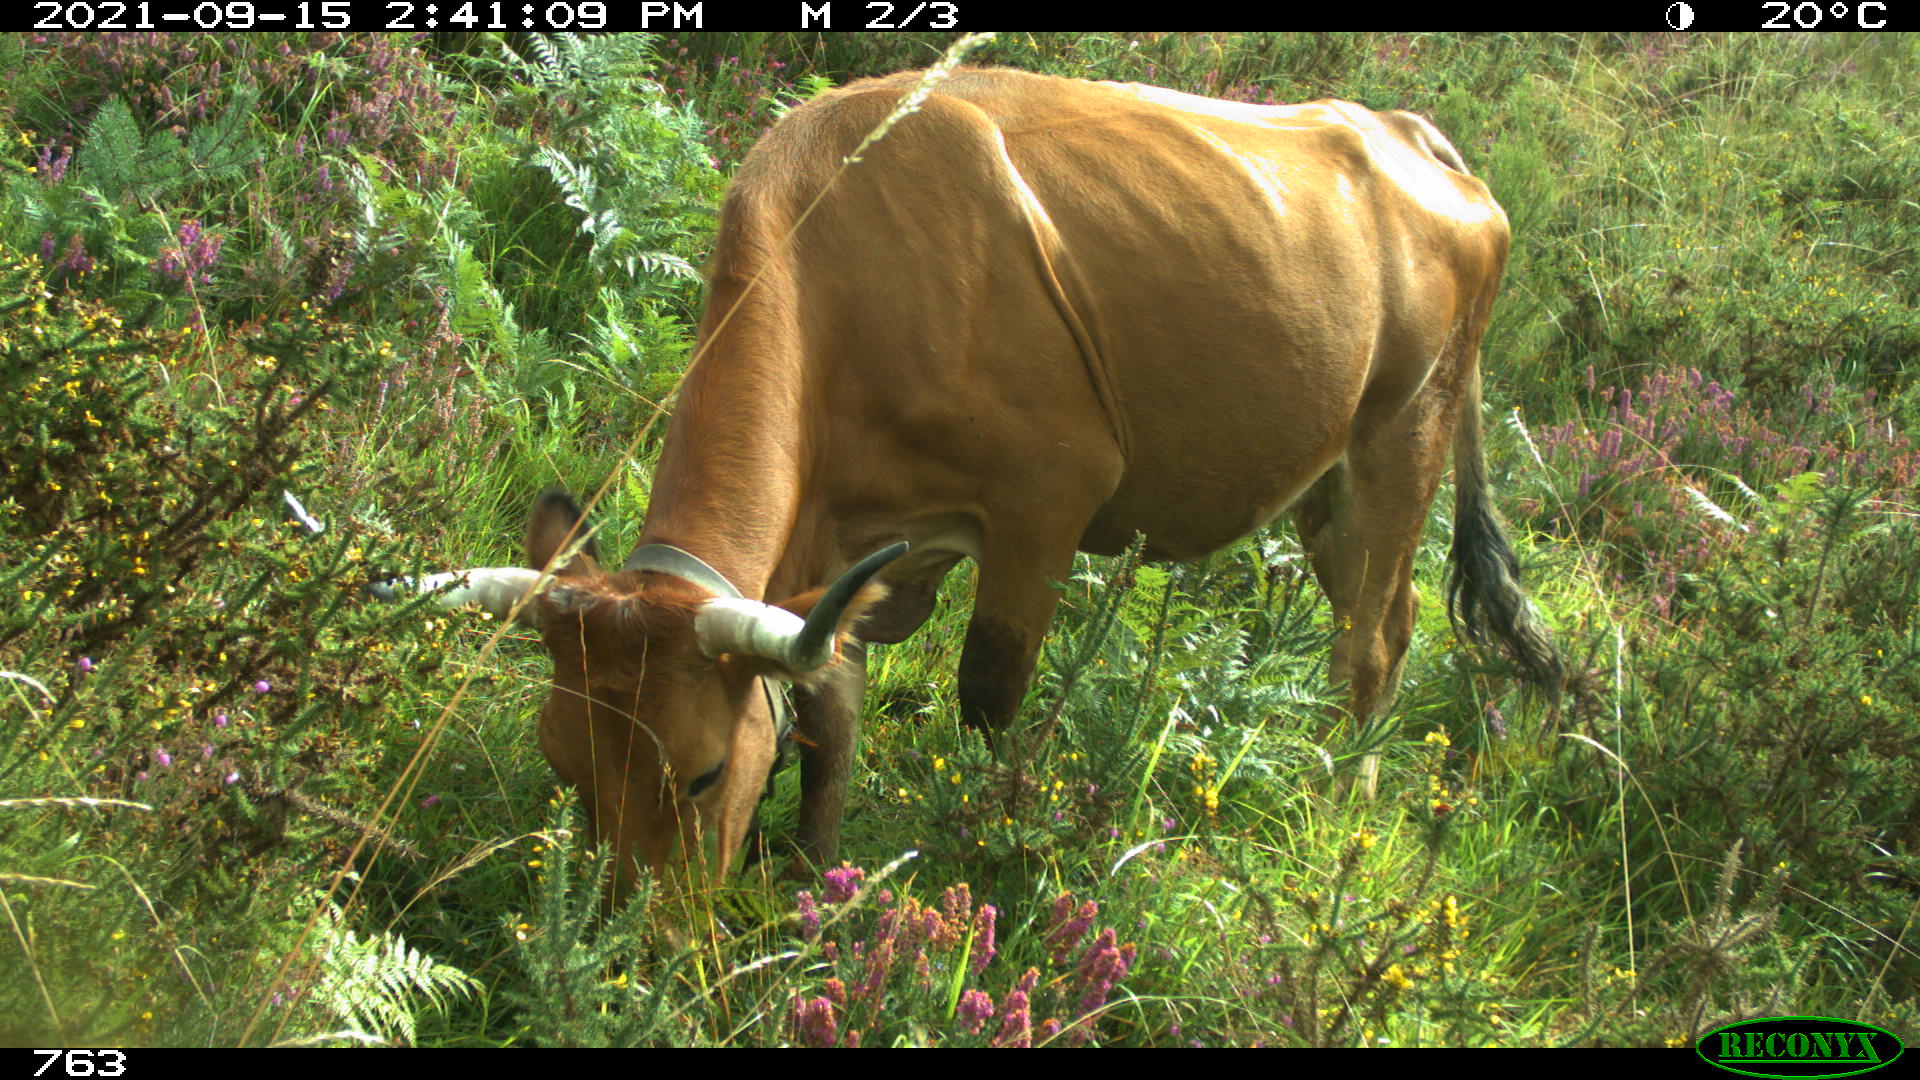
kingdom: Animalia
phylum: Chordata
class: Mammalia
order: Artiodactyla
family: Bovidae
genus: Bos
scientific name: Bos taurus
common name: Domesticated cattle
